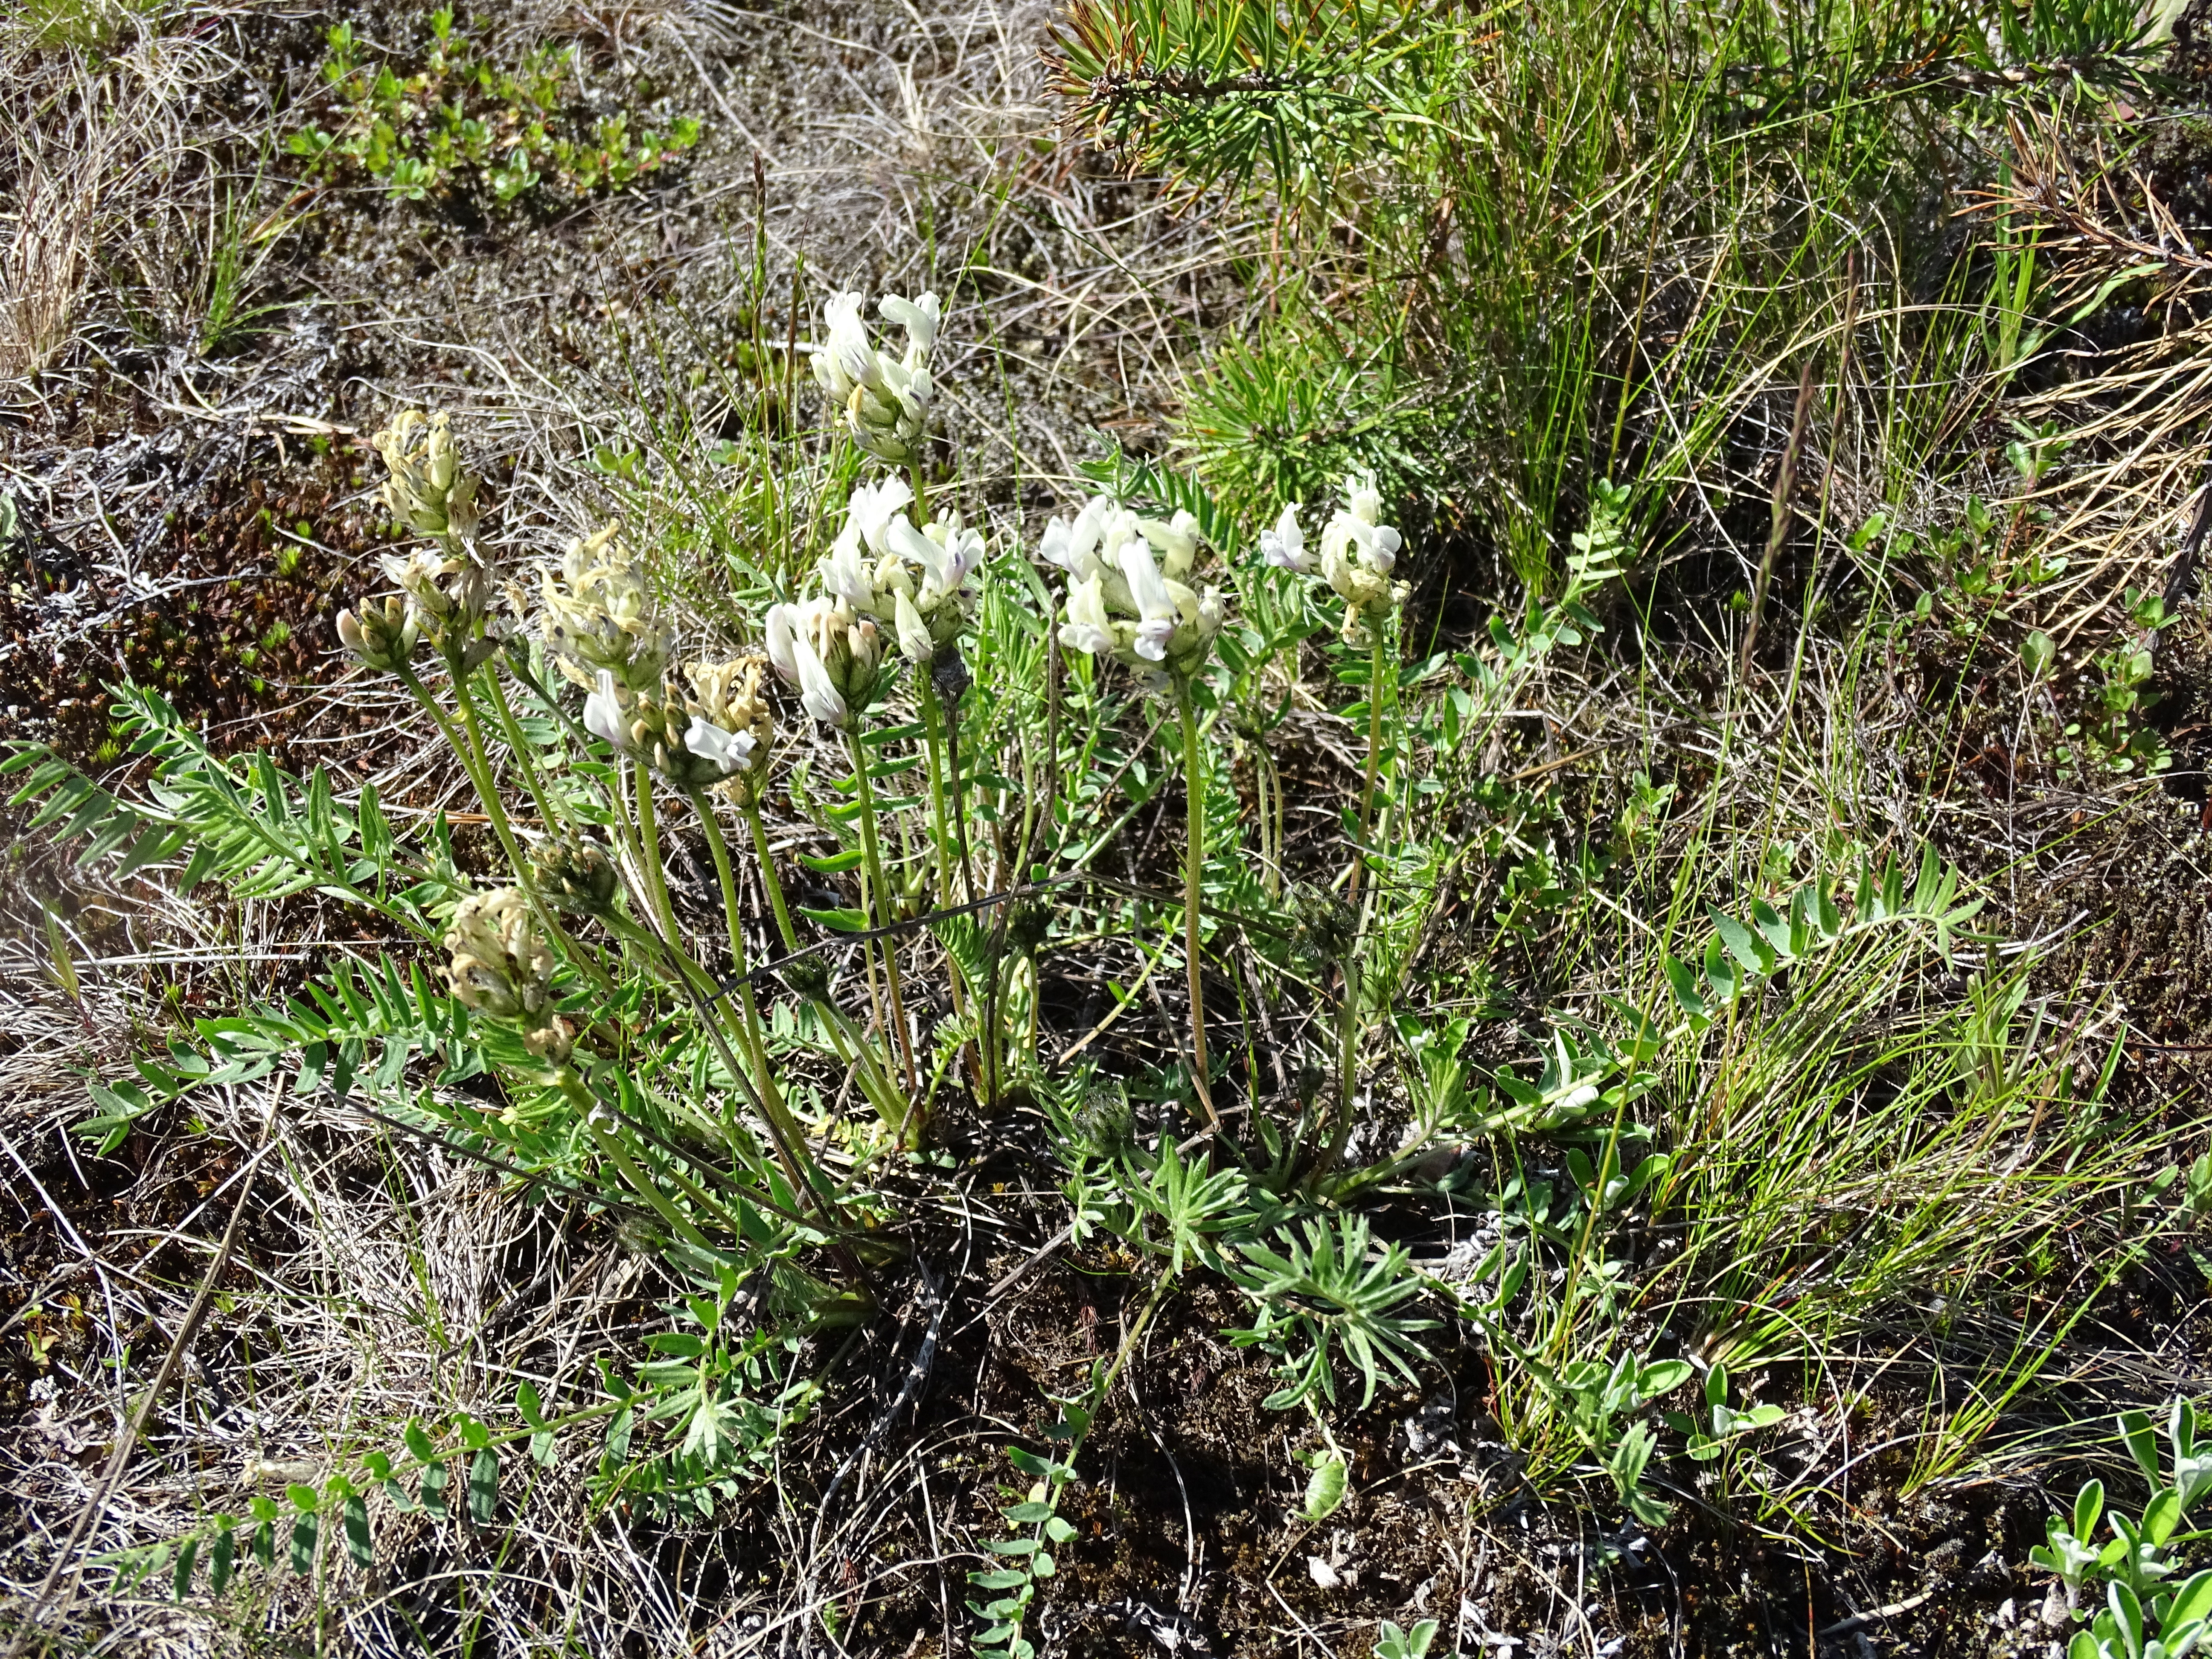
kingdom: Plantae
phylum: Tracheophyta
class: Magnoliopsida
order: Fabales
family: Fabaceae
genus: Oxytropis
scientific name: Oxytropis sordida
